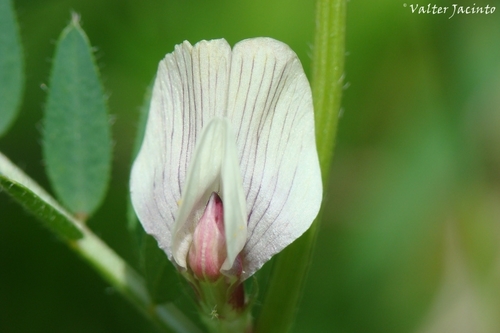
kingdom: Plantae
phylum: Tracheophyta
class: Magnoliopsida
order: Fabales
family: Fabaceae
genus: Vicia
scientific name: Vicia lutea
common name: Smooth yellow vetch
